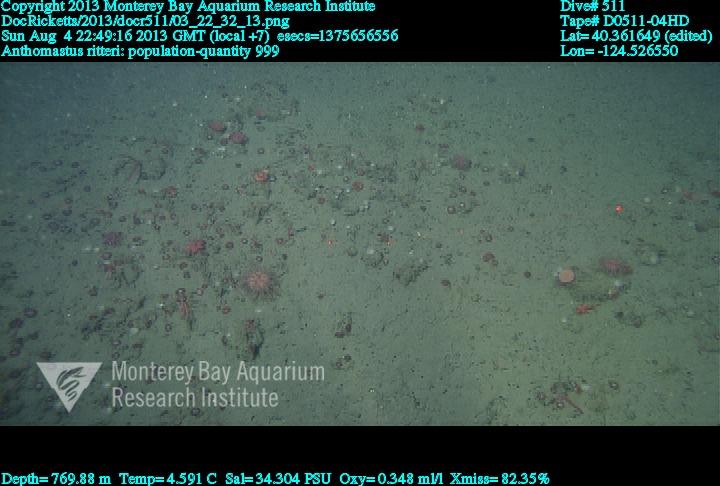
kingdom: Animalia
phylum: Cnidaria
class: Anthozoa
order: Scleralcyonacea
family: Coralliidae
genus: Heteropolypus
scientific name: Heteropolypus ritteri
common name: Ritter's soft coral
